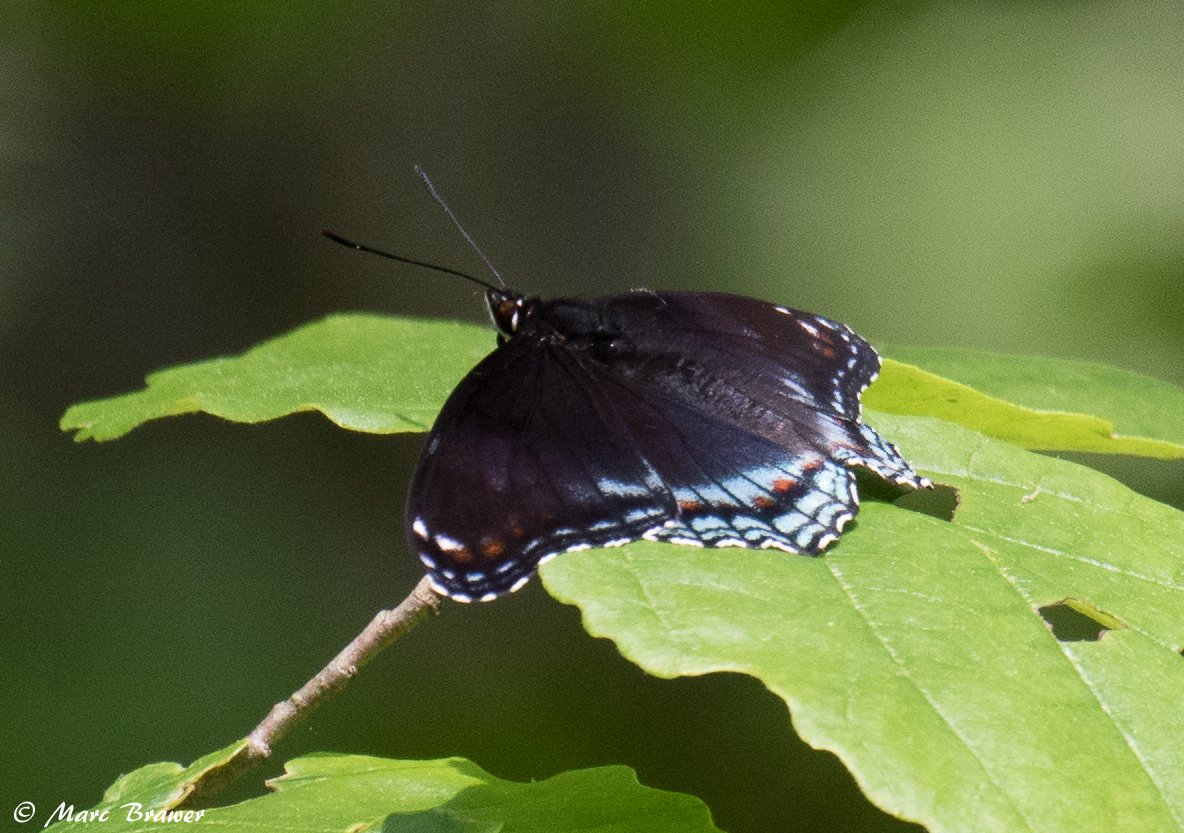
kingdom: Animalia
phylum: Arthropoda
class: Insecta
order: Lepidoptera
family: Nymphalidae
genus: Limenitis
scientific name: Limenitis astyanax
